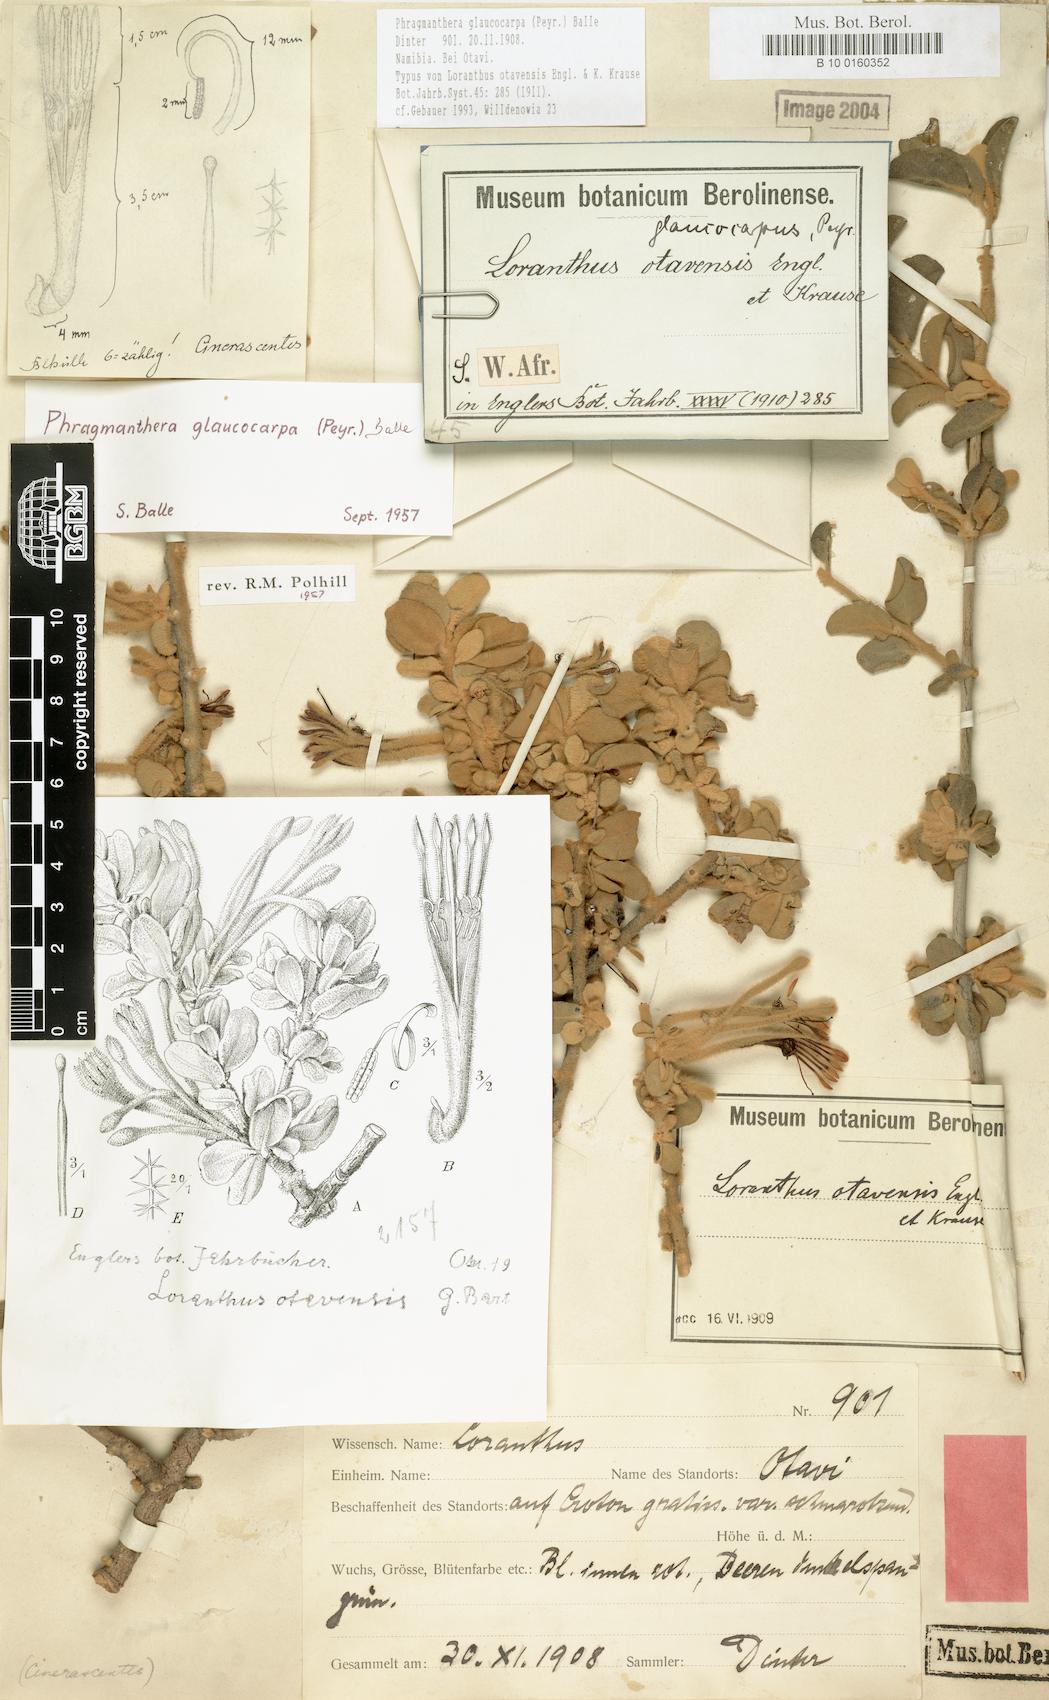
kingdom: Plantae
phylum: Tracheophyta
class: Magnoliopsida
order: Santalales
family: Loranthaceae
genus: Phragmanthera
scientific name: Phragmanthera glaucocarpa
